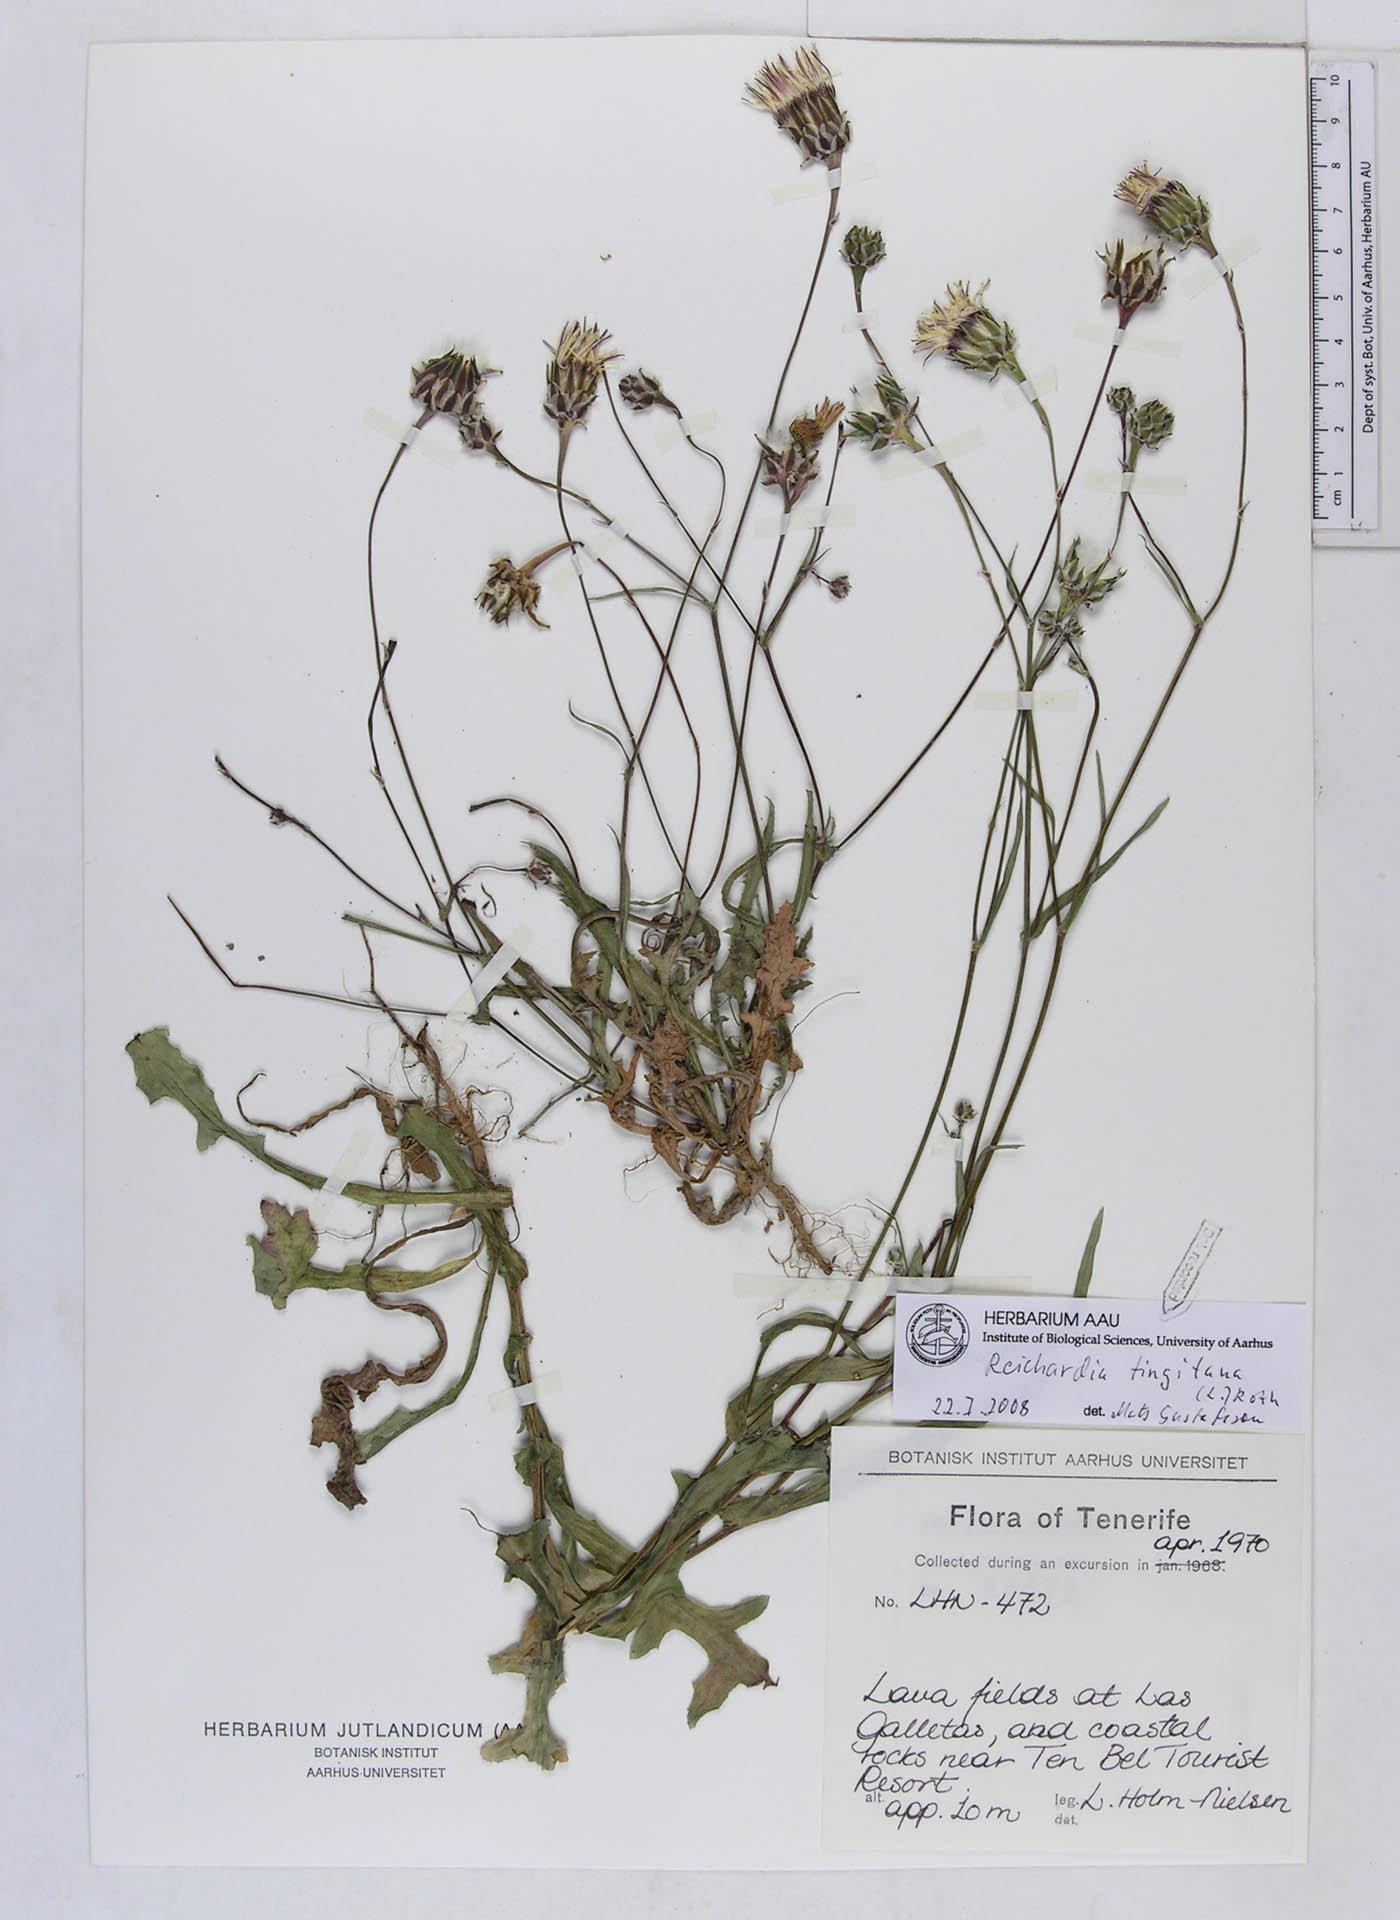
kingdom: Plantae
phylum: Tracheophyta
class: Magnoliopsida
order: Asterales
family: Asteraceae
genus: Reichardia
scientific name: Reichardia tingitana
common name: Reichardia
